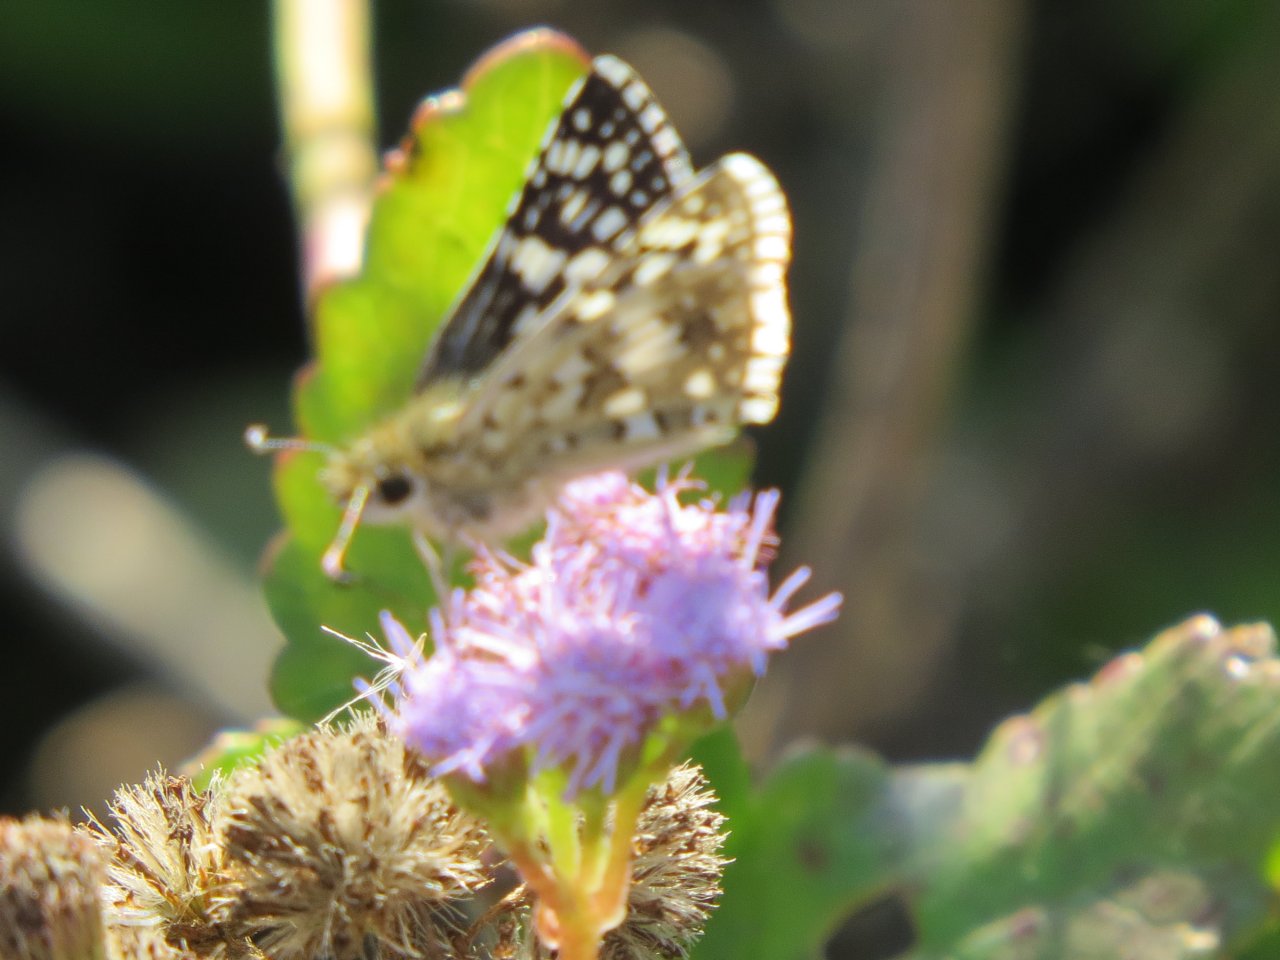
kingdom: Animalia
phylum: Arthropoda
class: Insecta
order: Lepidoptera
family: Hesperiidae
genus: Pyrgus
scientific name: Pyrgus communis
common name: Common Checkered-Skipper
